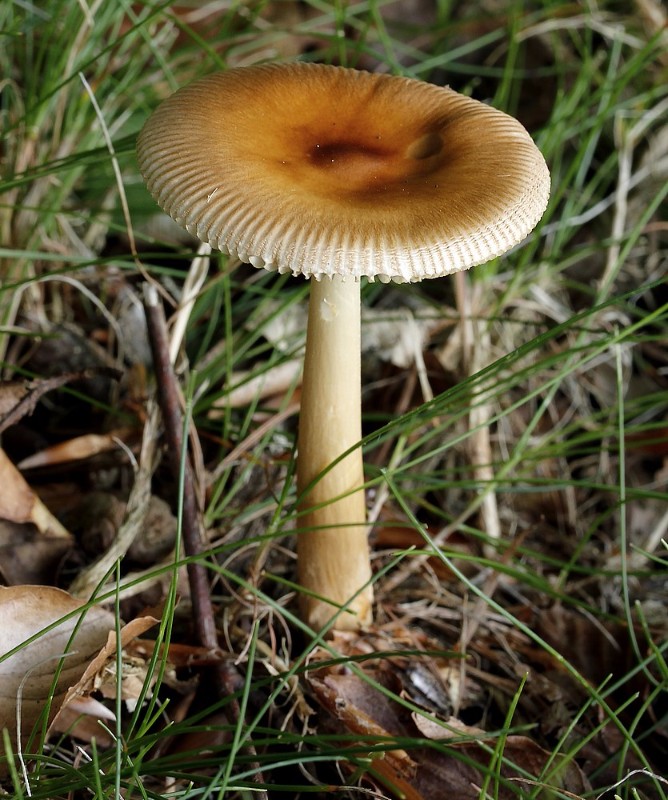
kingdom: Fungi
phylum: Basidiomycota
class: Agaricomycetes
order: Agaricales
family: Amanitaceae
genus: Amanita
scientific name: Amanita fulva
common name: brun kam-fluesvamp
